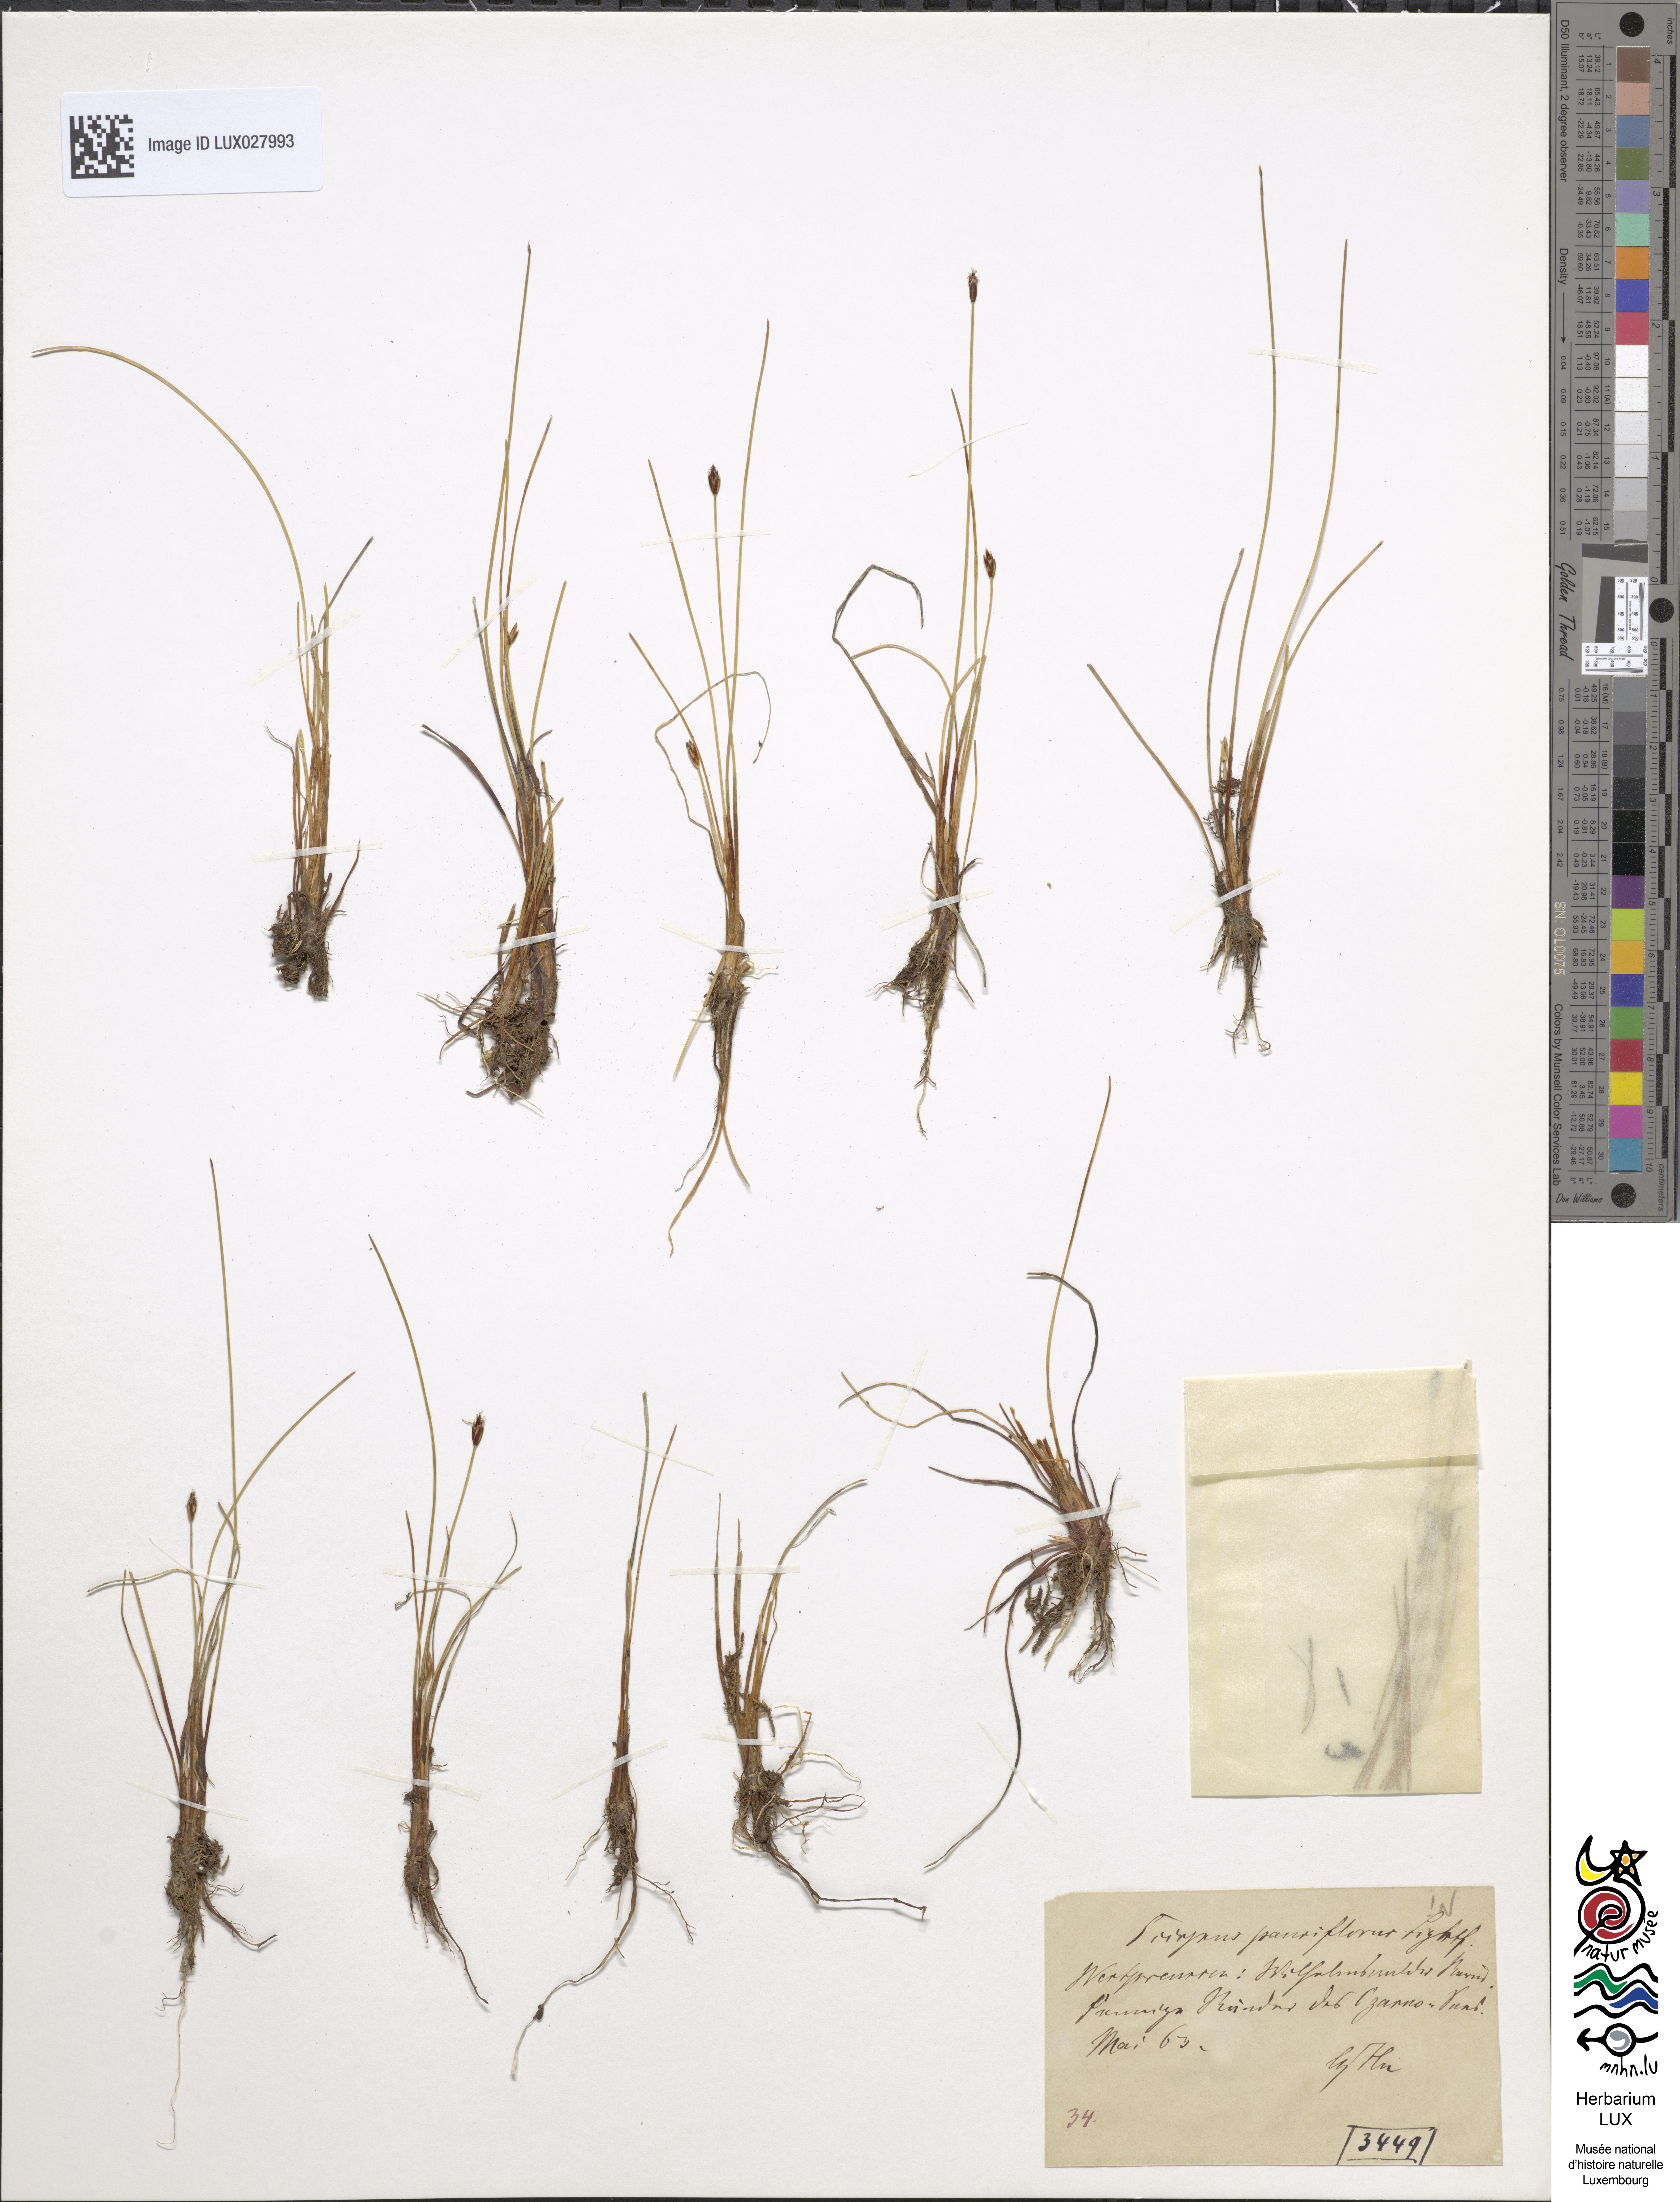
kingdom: Plantae
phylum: Tracheophyta
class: Liliopsida
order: Poales
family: Cyperaceae
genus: Eleocharis
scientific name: Eleocharis quinqueflora
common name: Few-flowered spike-rush
